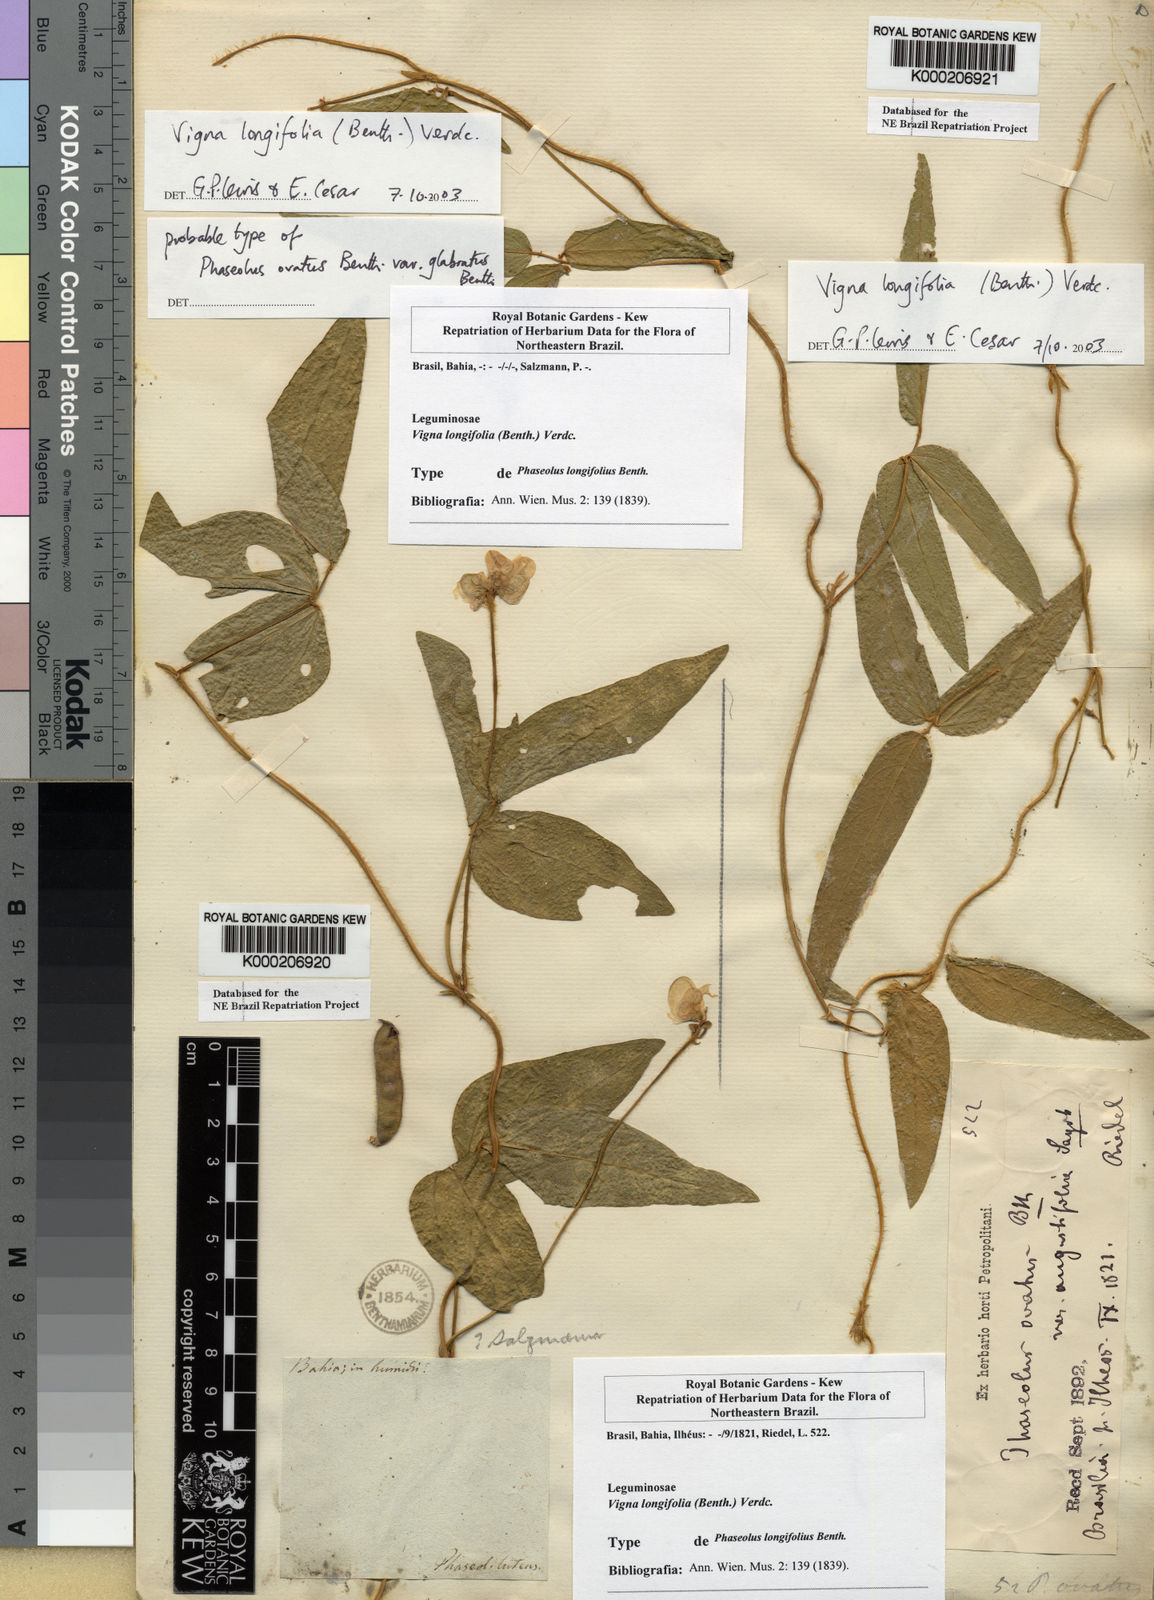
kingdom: Plantae
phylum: Tracheophyta
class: Magnoliopsida
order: Fabales
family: Fabaceae
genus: Vigna
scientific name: Vigna longifolia
